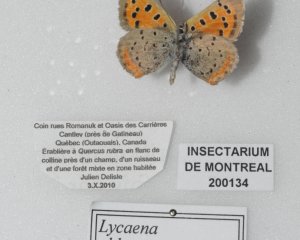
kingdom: Animalia
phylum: Arthropoda
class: Insecta
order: Lepidoptera
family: Lycaenidae
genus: Lycaena
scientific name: Lycaena phlaeas
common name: American Copper
